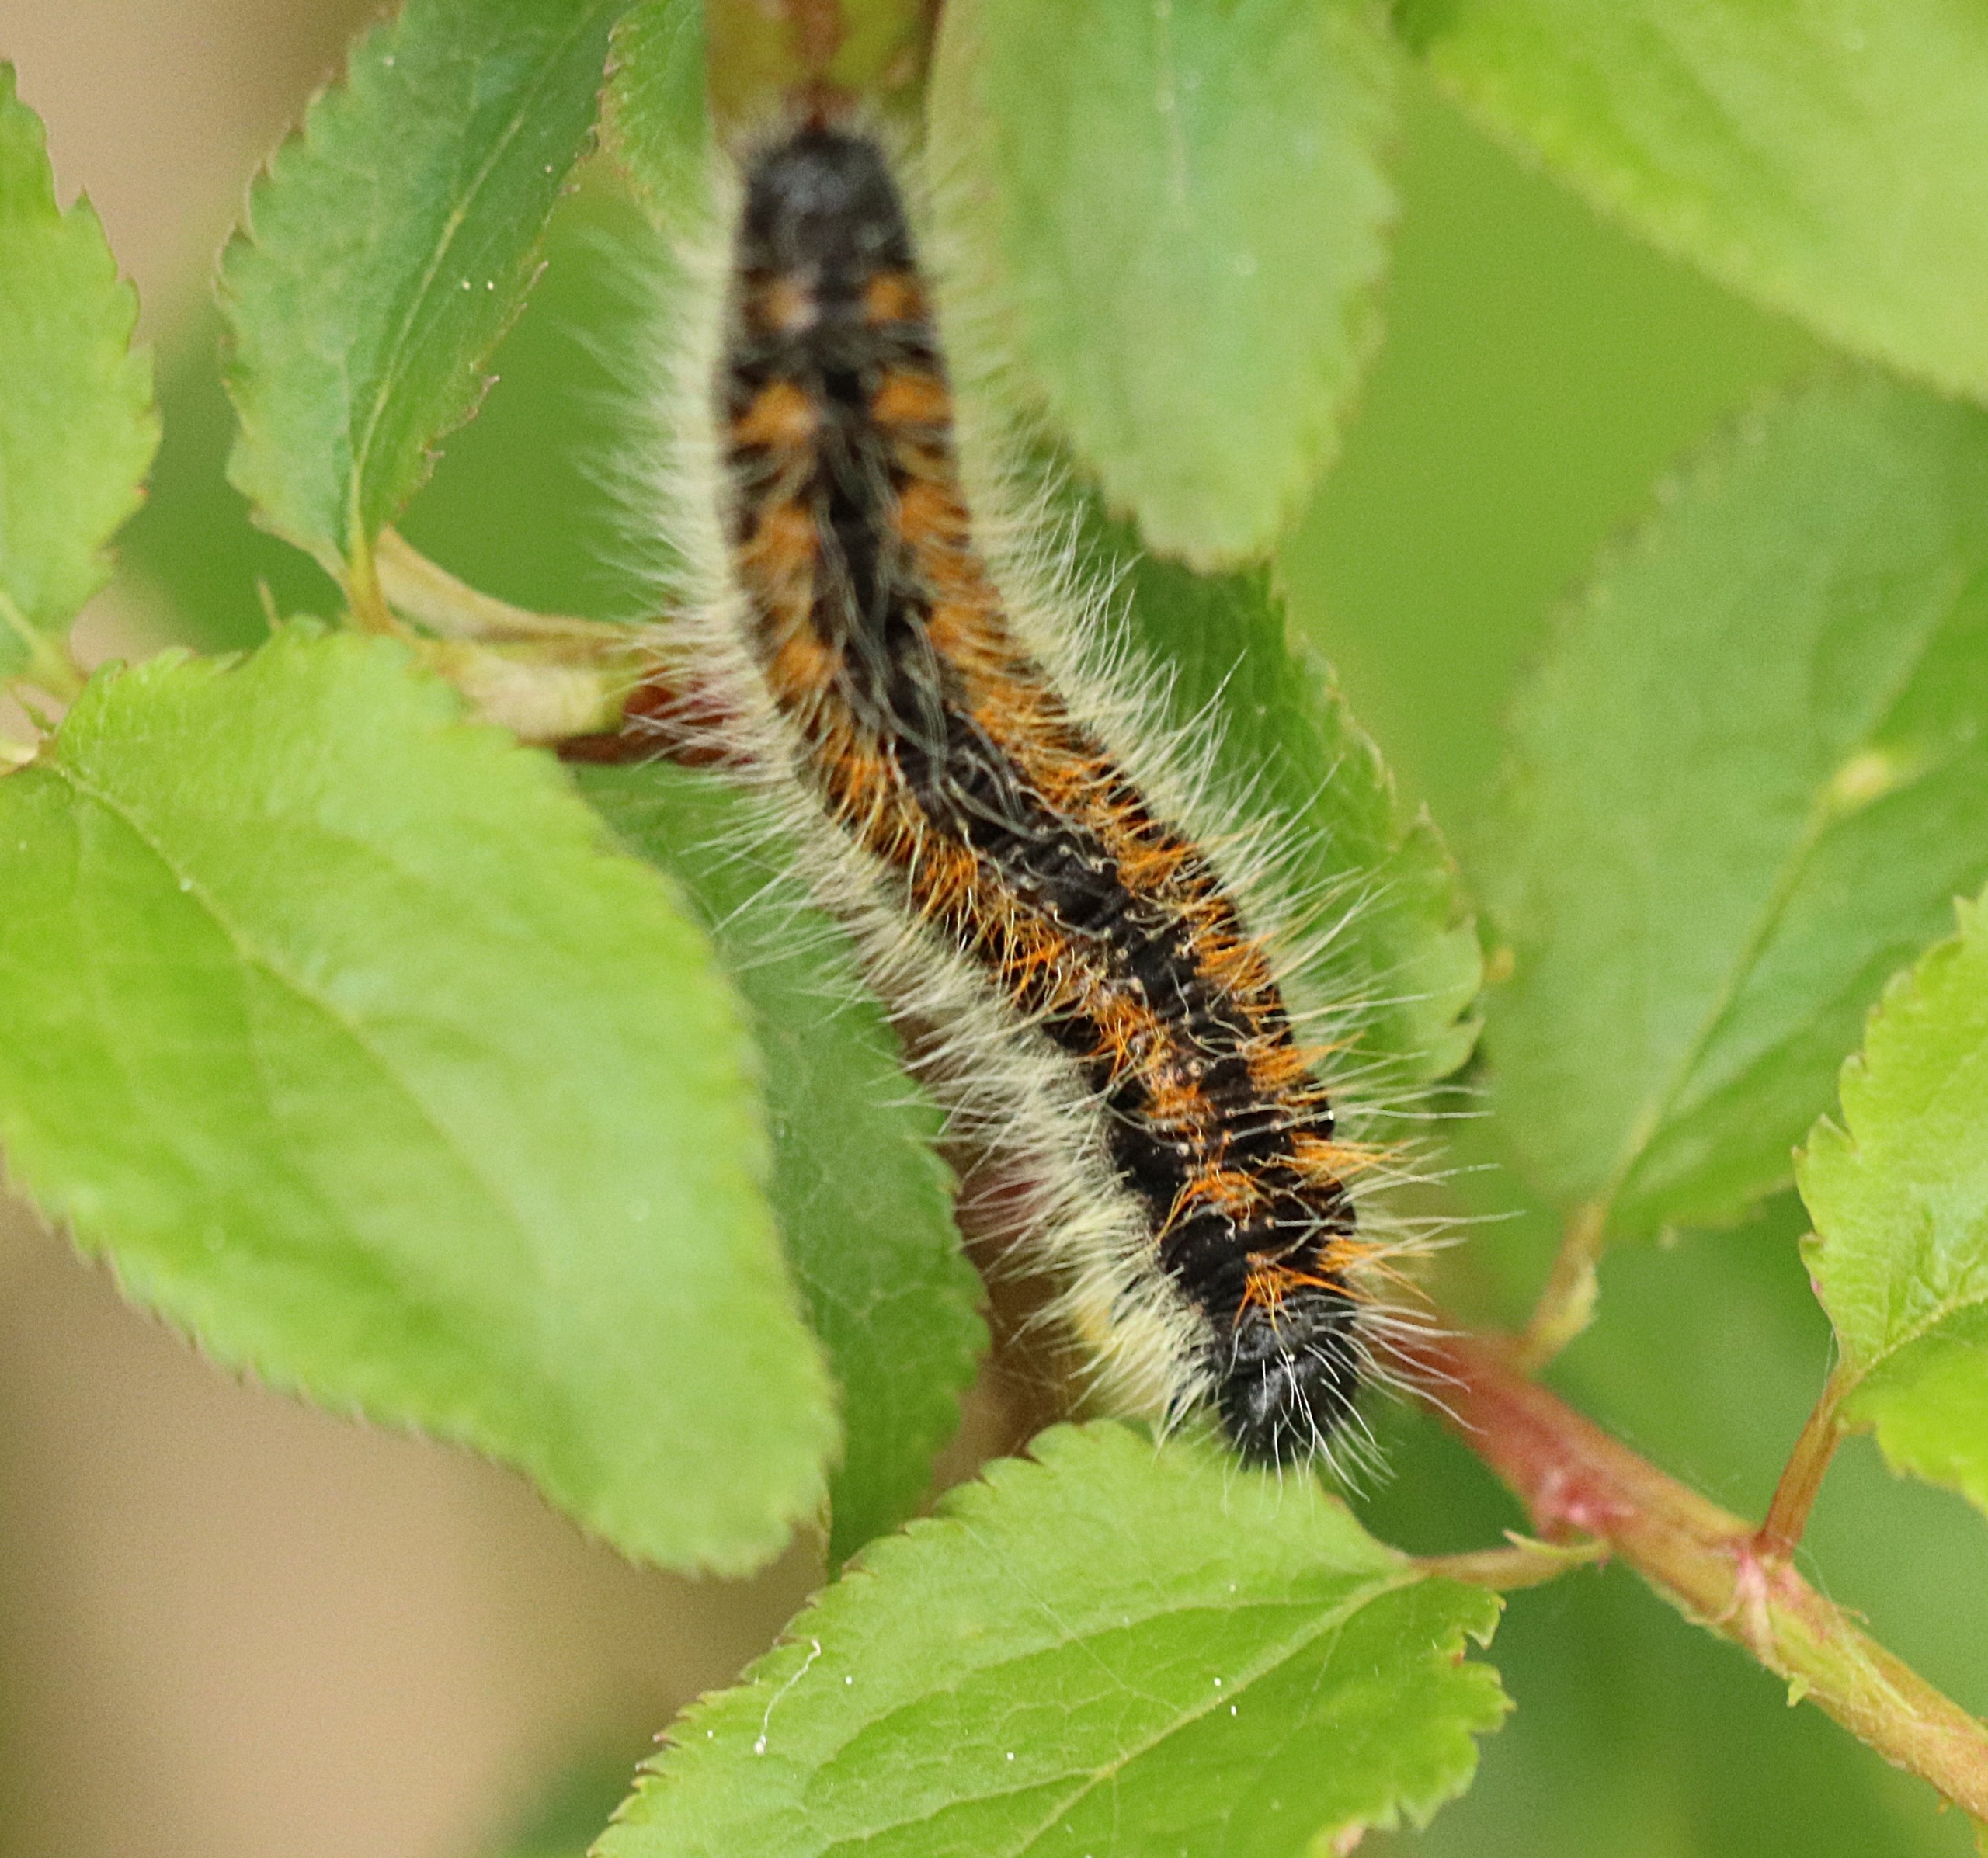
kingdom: Animalia
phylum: Arthropoda
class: Insecta
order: Lepidoptera
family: Pieridae
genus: Aporia
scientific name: Aporia crataegi
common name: Sortåret hvidvinge
